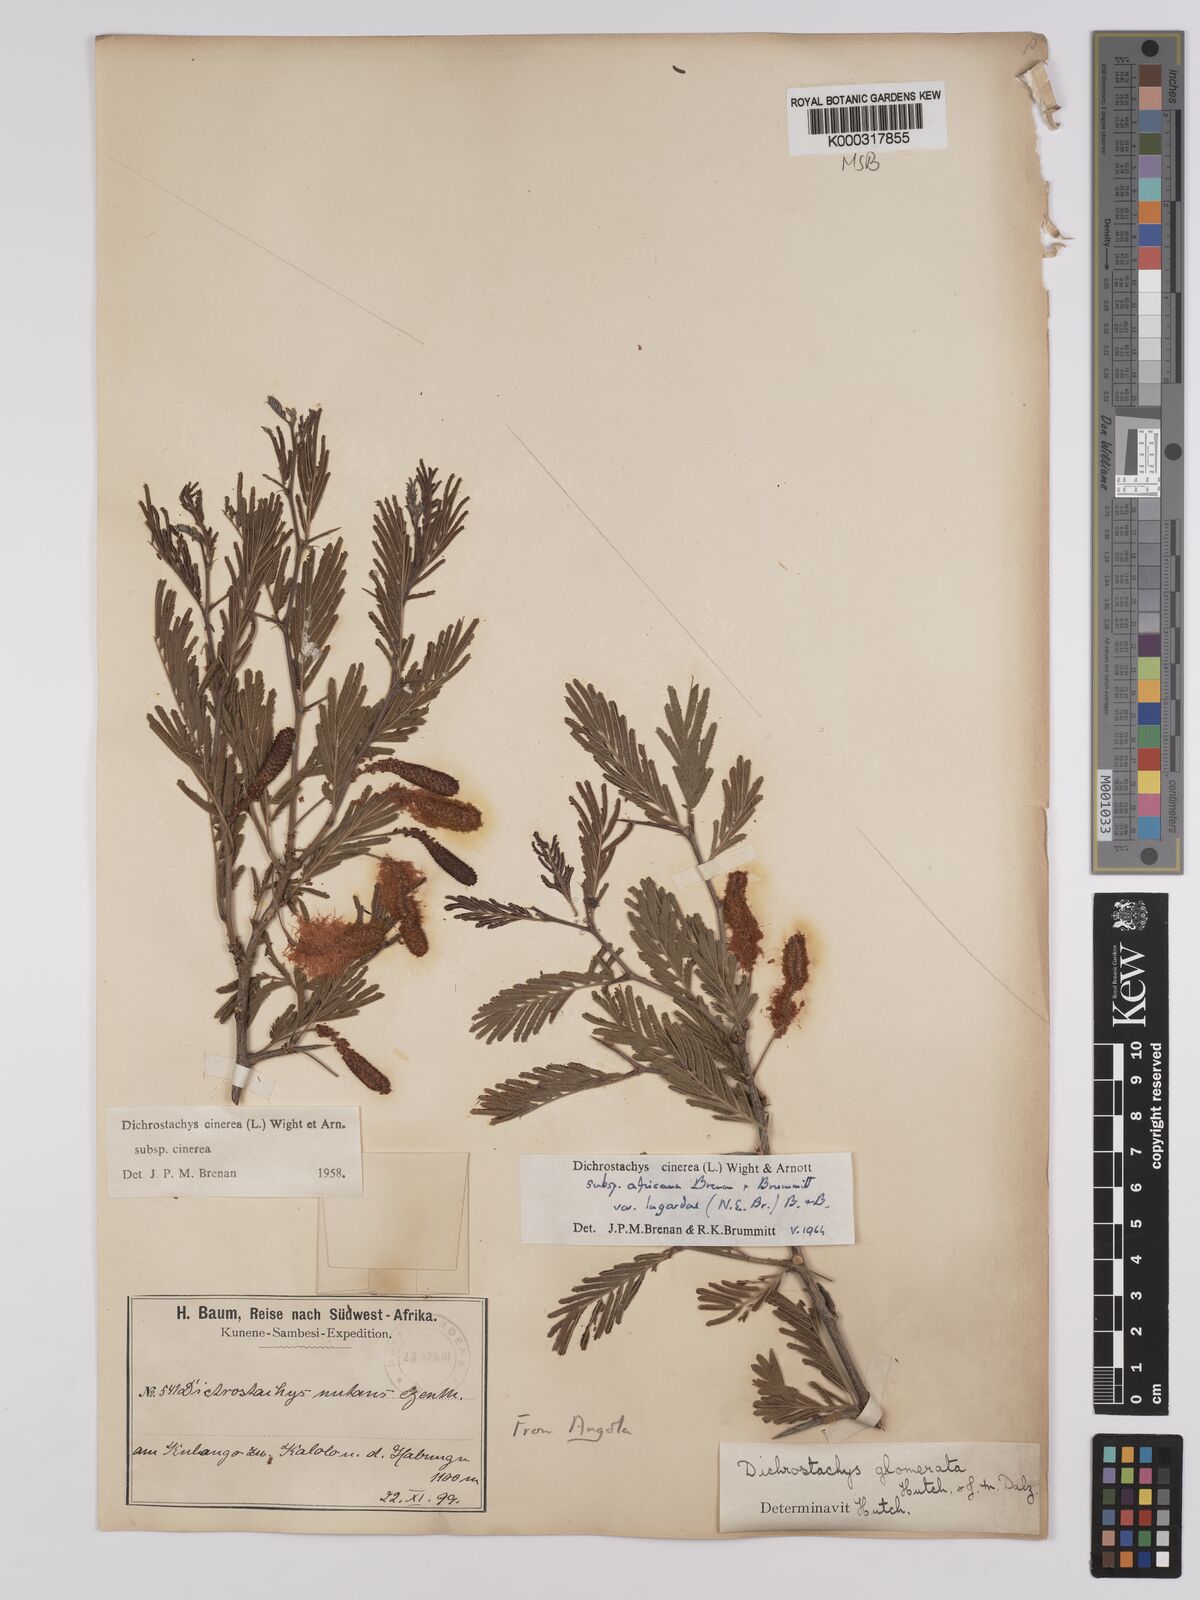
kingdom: Plantae
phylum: Tracheophyta
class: Magnoliopsida
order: Fabales
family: Fabaceae
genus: Dichrostachys
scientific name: Dichrostachys cinerea
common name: Sicklebush
